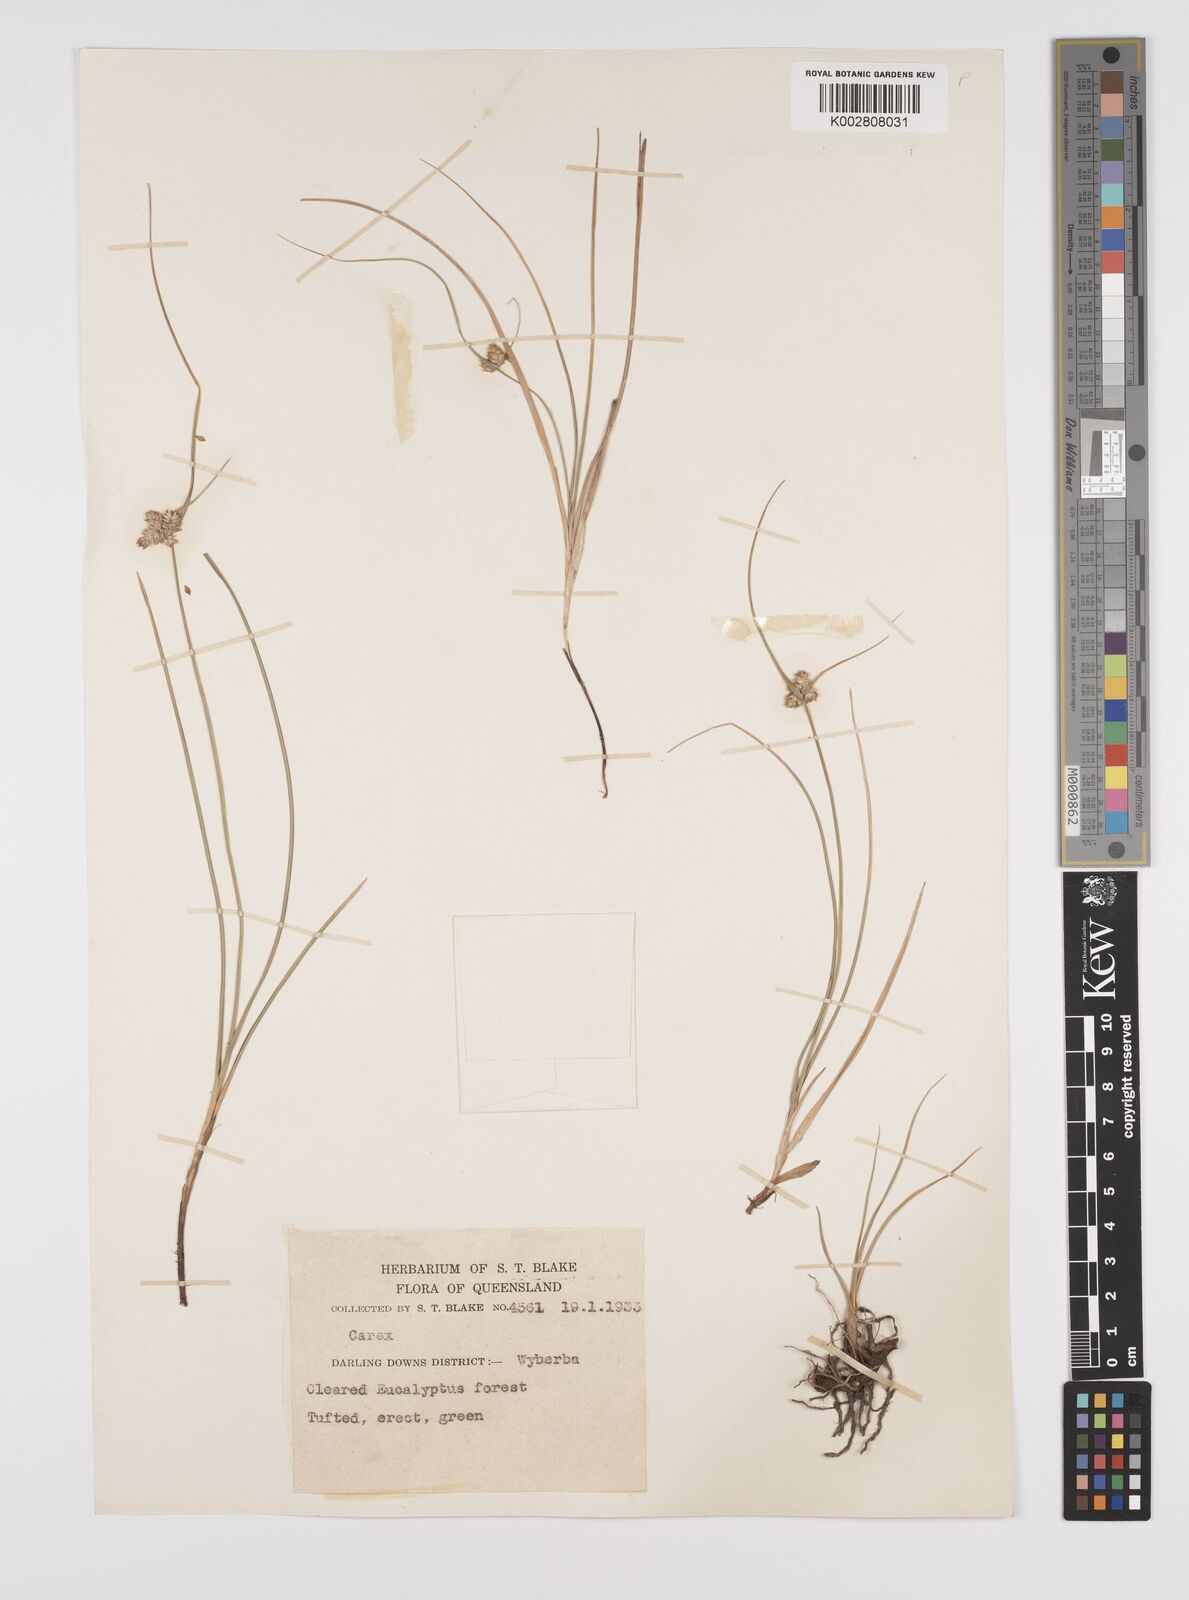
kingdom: Plantae
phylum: Tracheophyta
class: Liliopsida
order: Poales
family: Cyperaceae
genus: Carex
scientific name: Carex inversa
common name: Knob sedge
